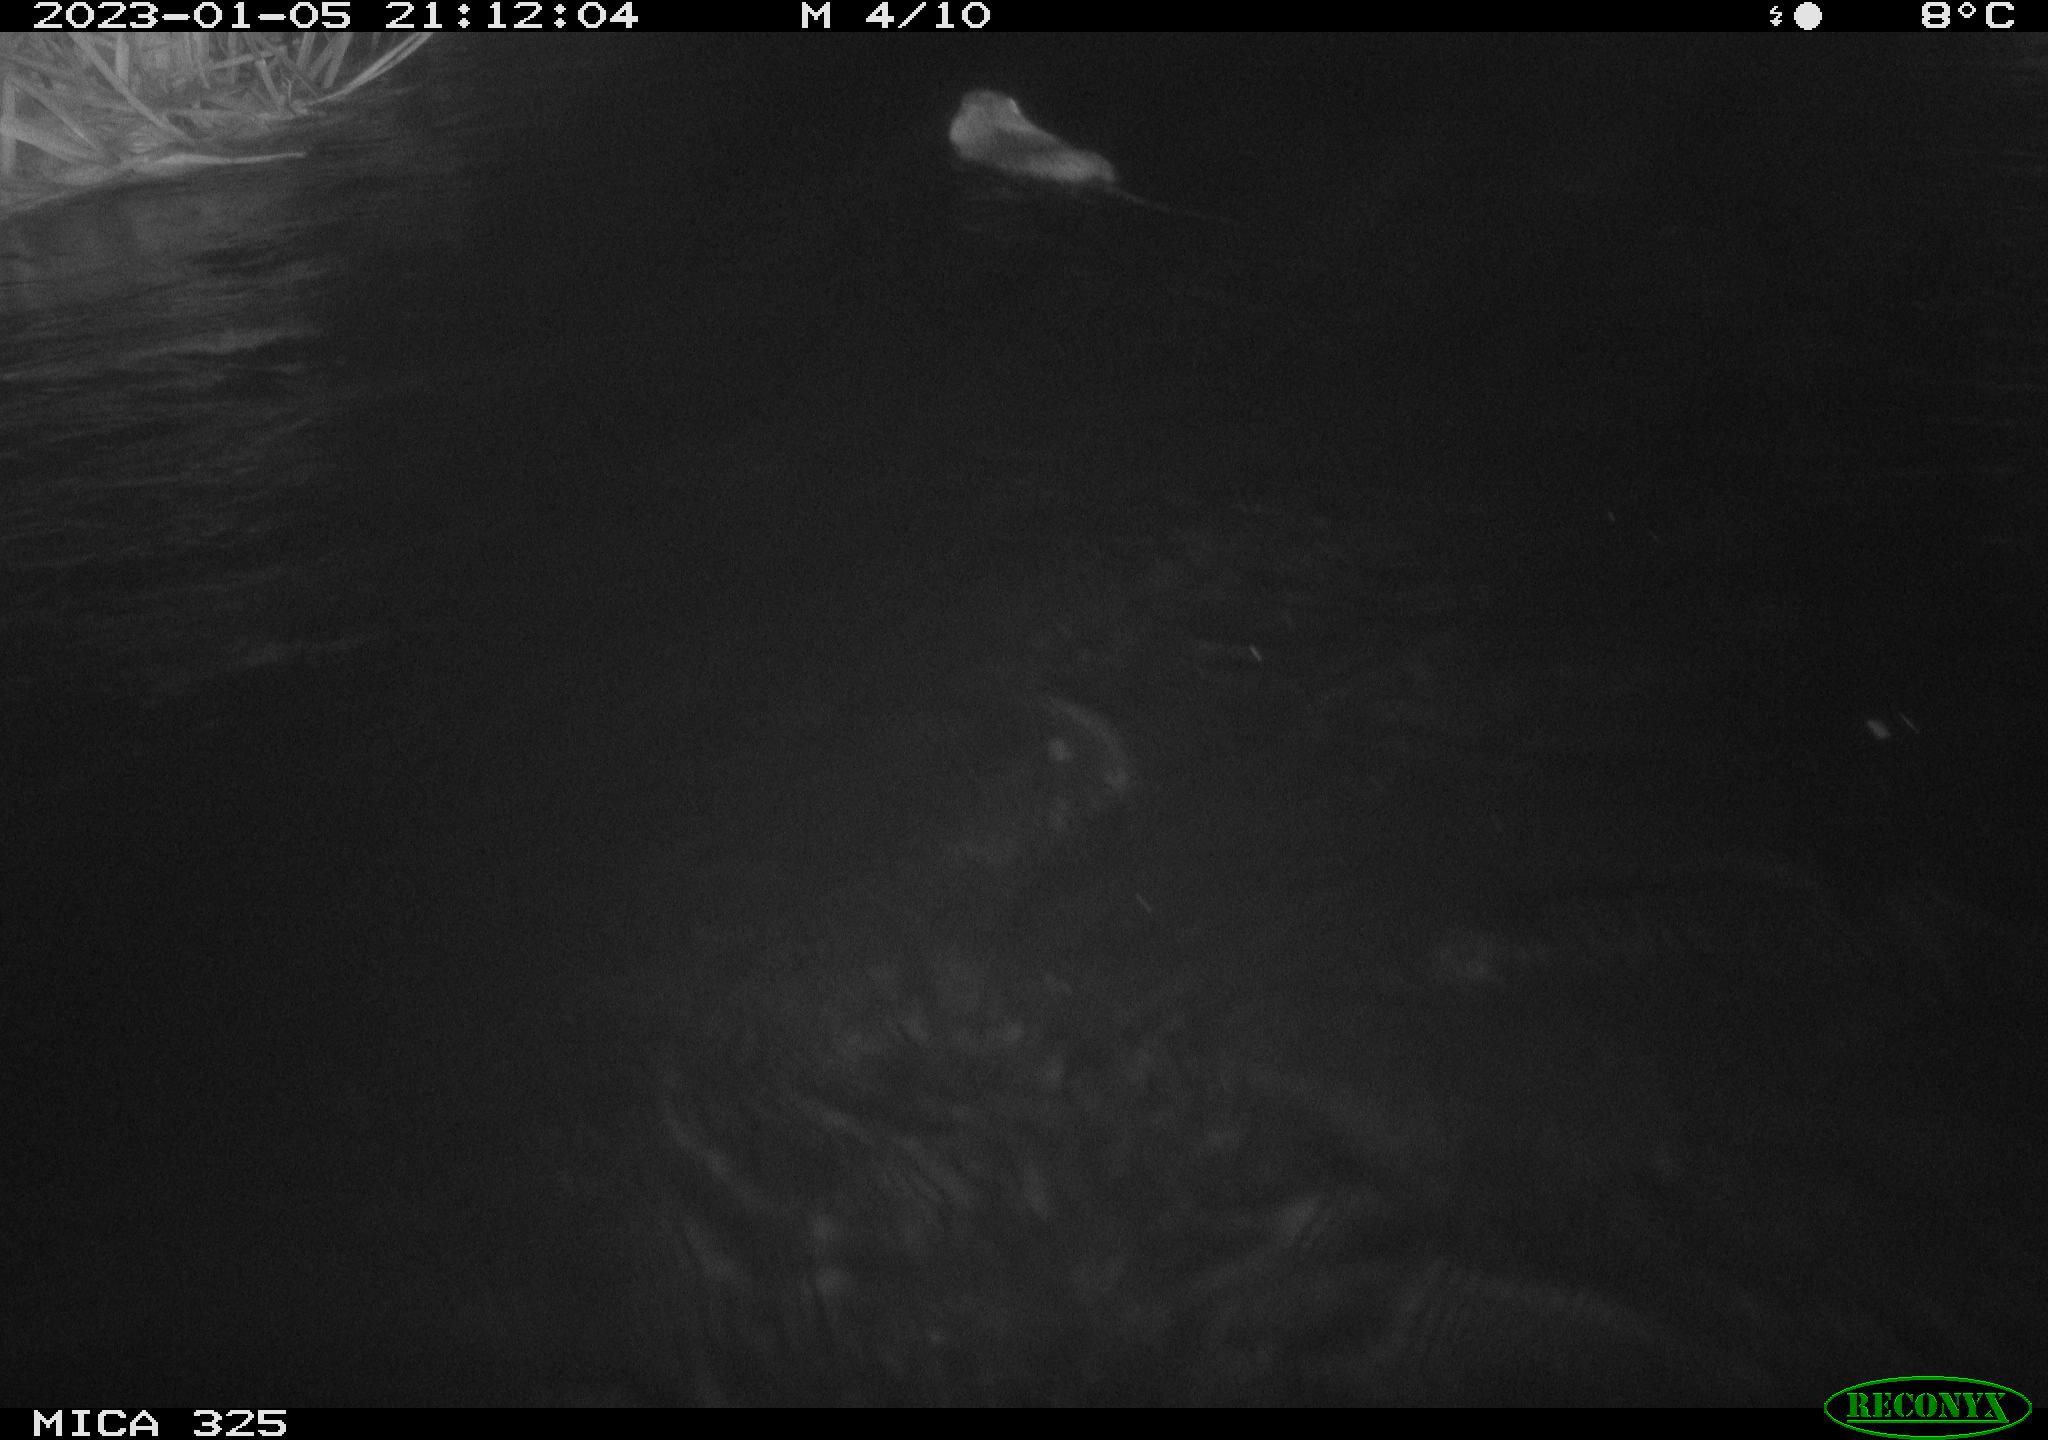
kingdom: Animalia
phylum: Chordata
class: Mammalia
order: Rodentia
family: Myocastoridae
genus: Myocastor
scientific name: Myocastor coypus
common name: Coypu
